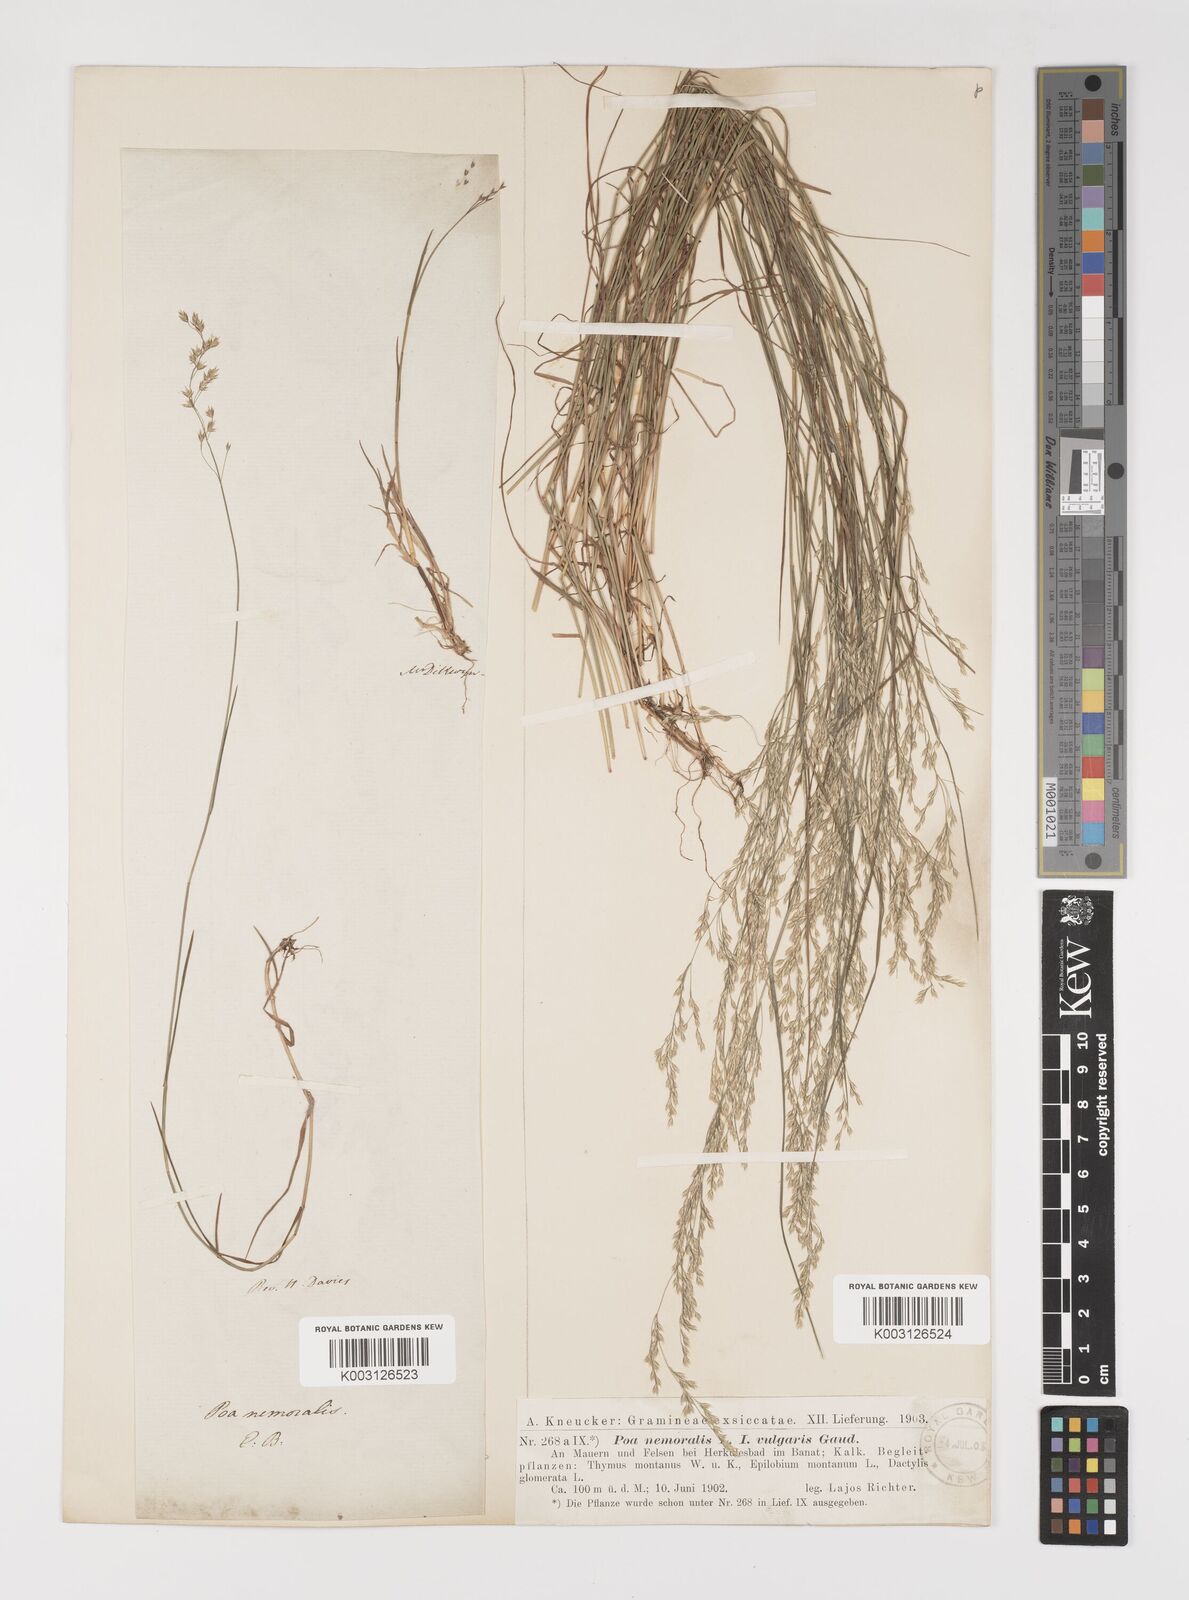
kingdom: Plantae
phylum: Tracheophyta
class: Liliopsida
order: Poales
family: Poaceae
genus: Poa
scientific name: Poa nemoralis
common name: Wood bluegrass
